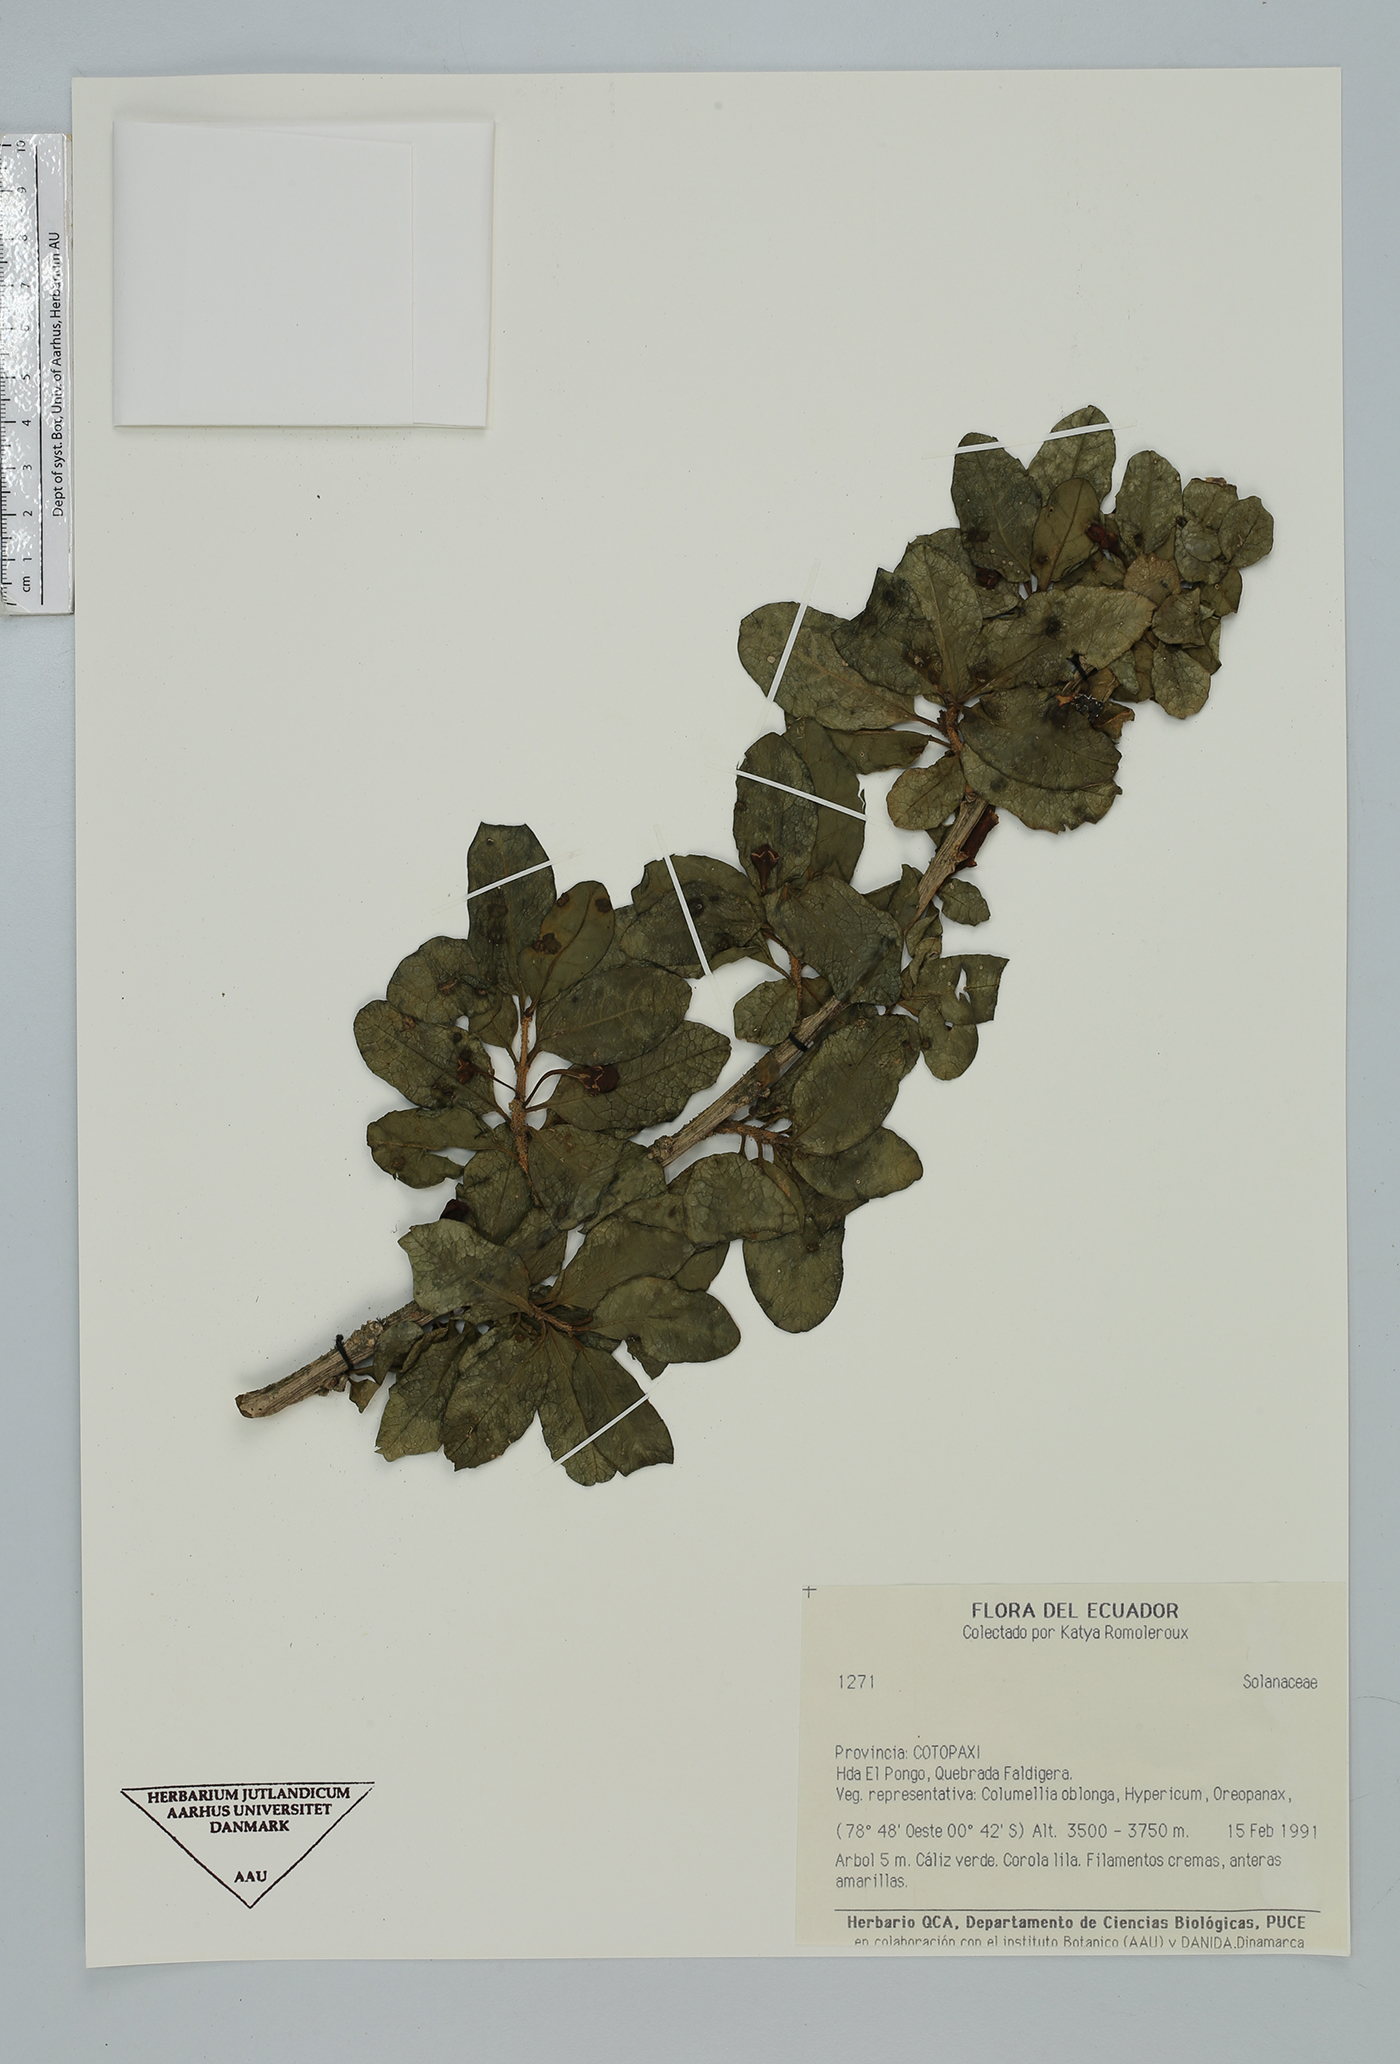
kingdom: Plantae
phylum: Tracheophyta
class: Magnoliopsida
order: Solanales
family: Solanaceae
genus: Saracha
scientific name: Saracha quitensis
